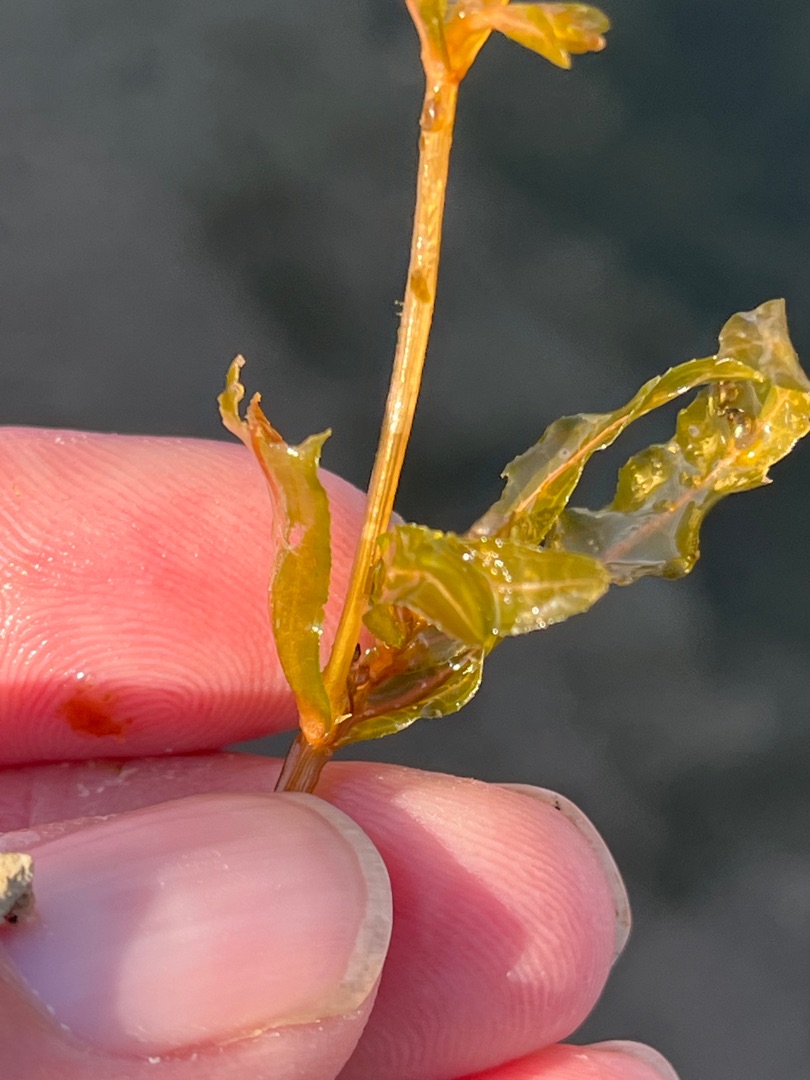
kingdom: Plantae
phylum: Tracheophyta
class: Liliopsida
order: Alismatales
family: Potamogetonaceae
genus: Potamogeton
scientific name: Potamogeton crispus
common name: Kruset vandaks
